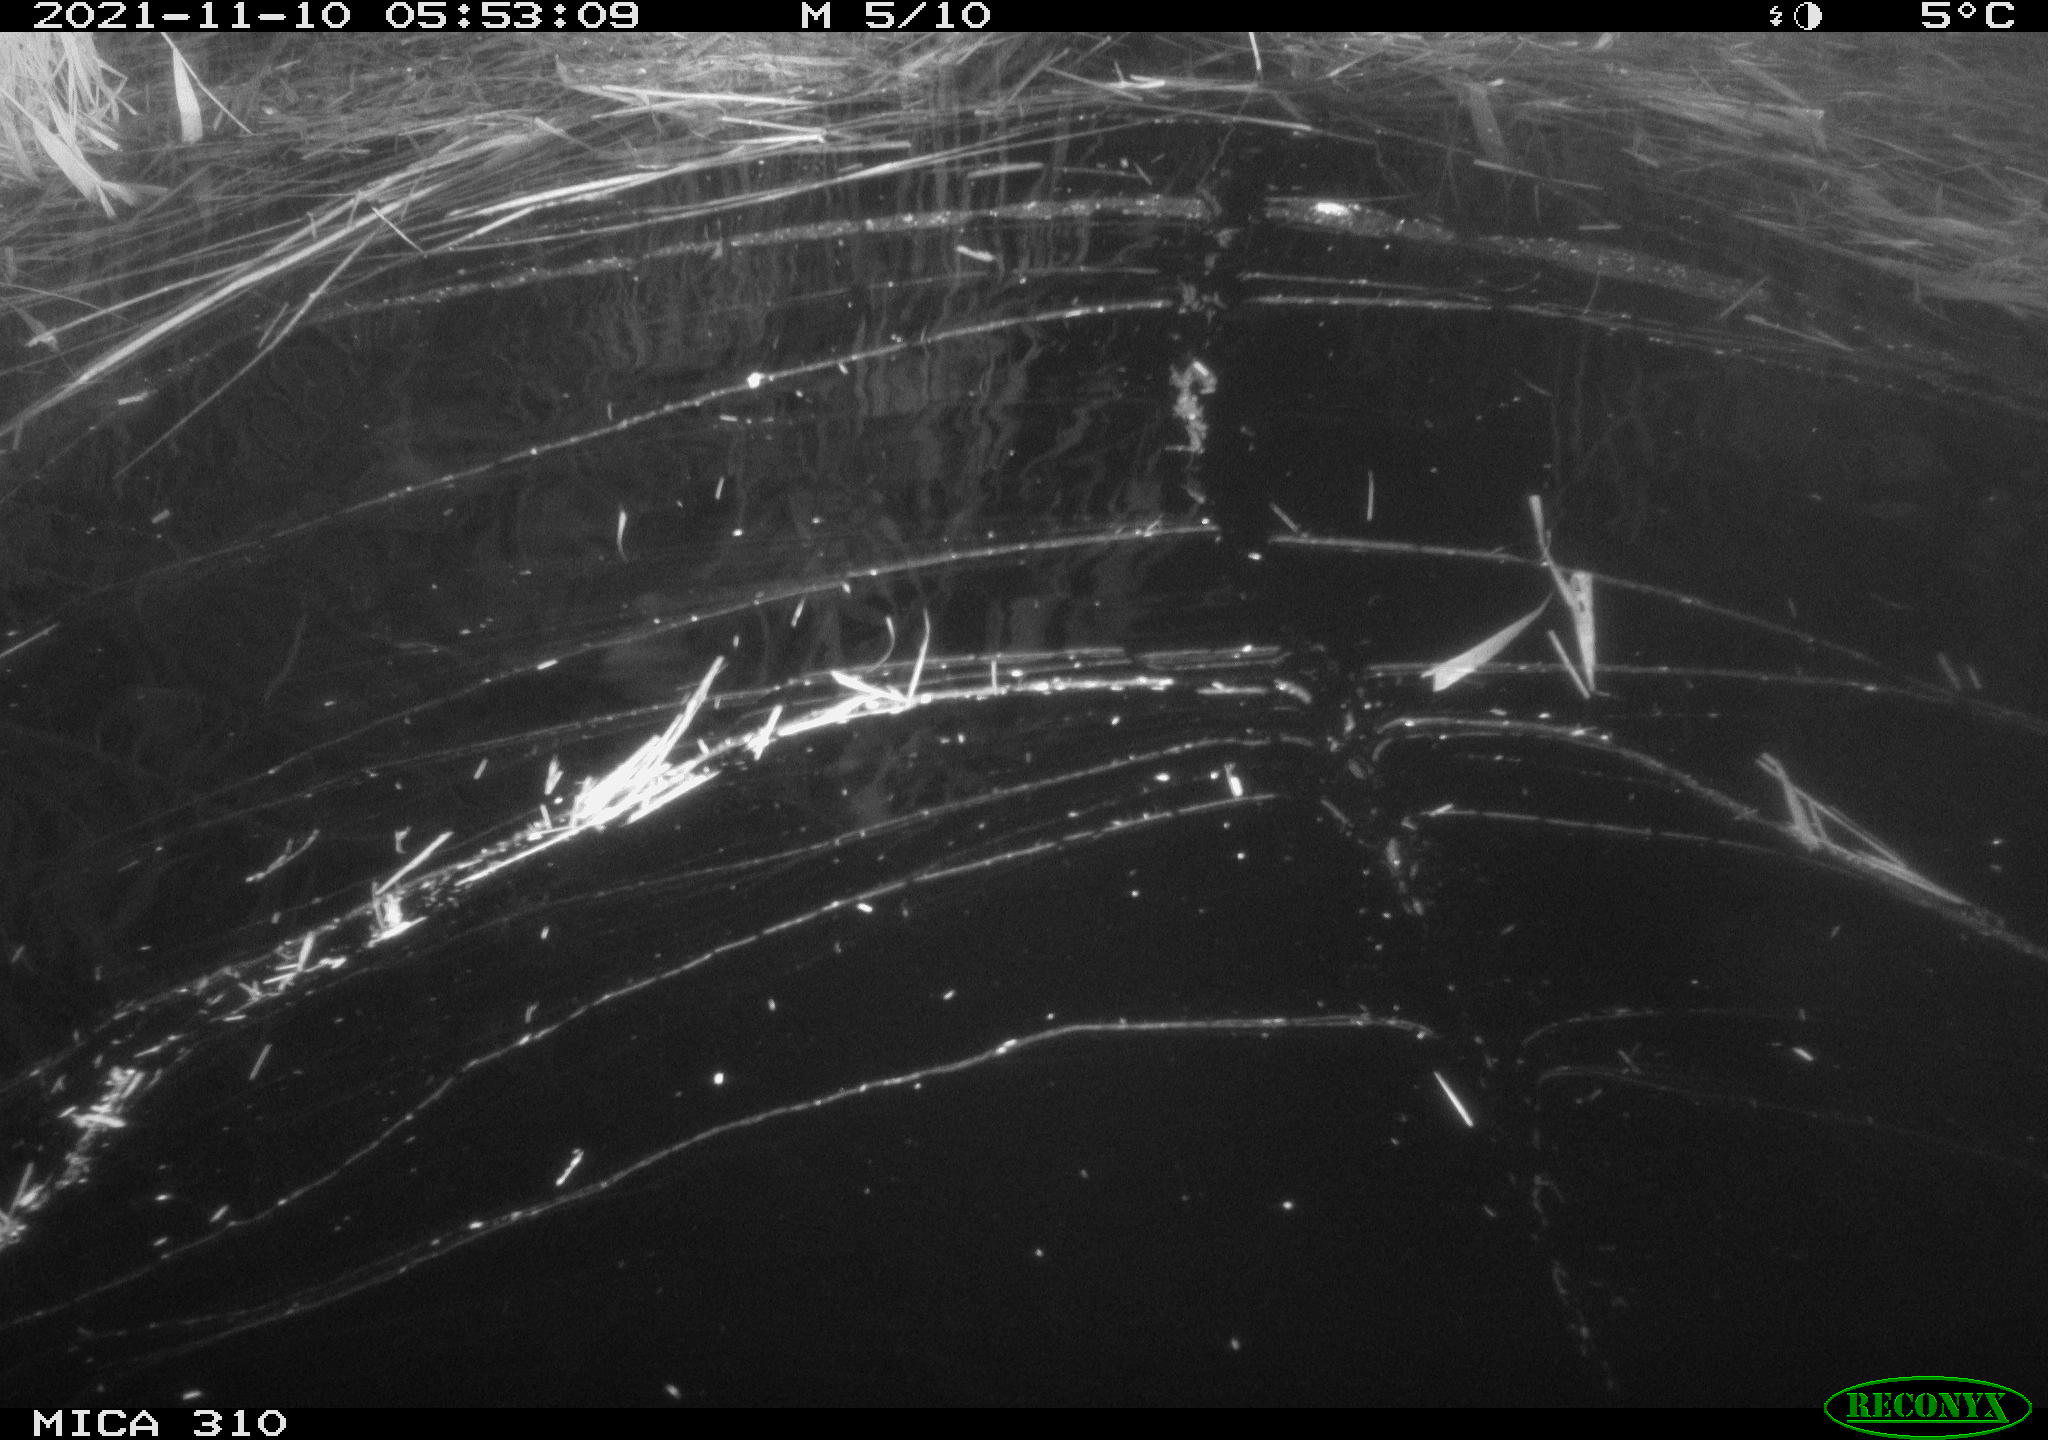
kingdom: Animalia
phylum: Chordata
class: Mammalia
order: Rodentia
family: Muridae
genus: Rattus
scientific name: Rattus norvegicus
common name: Brown rat
